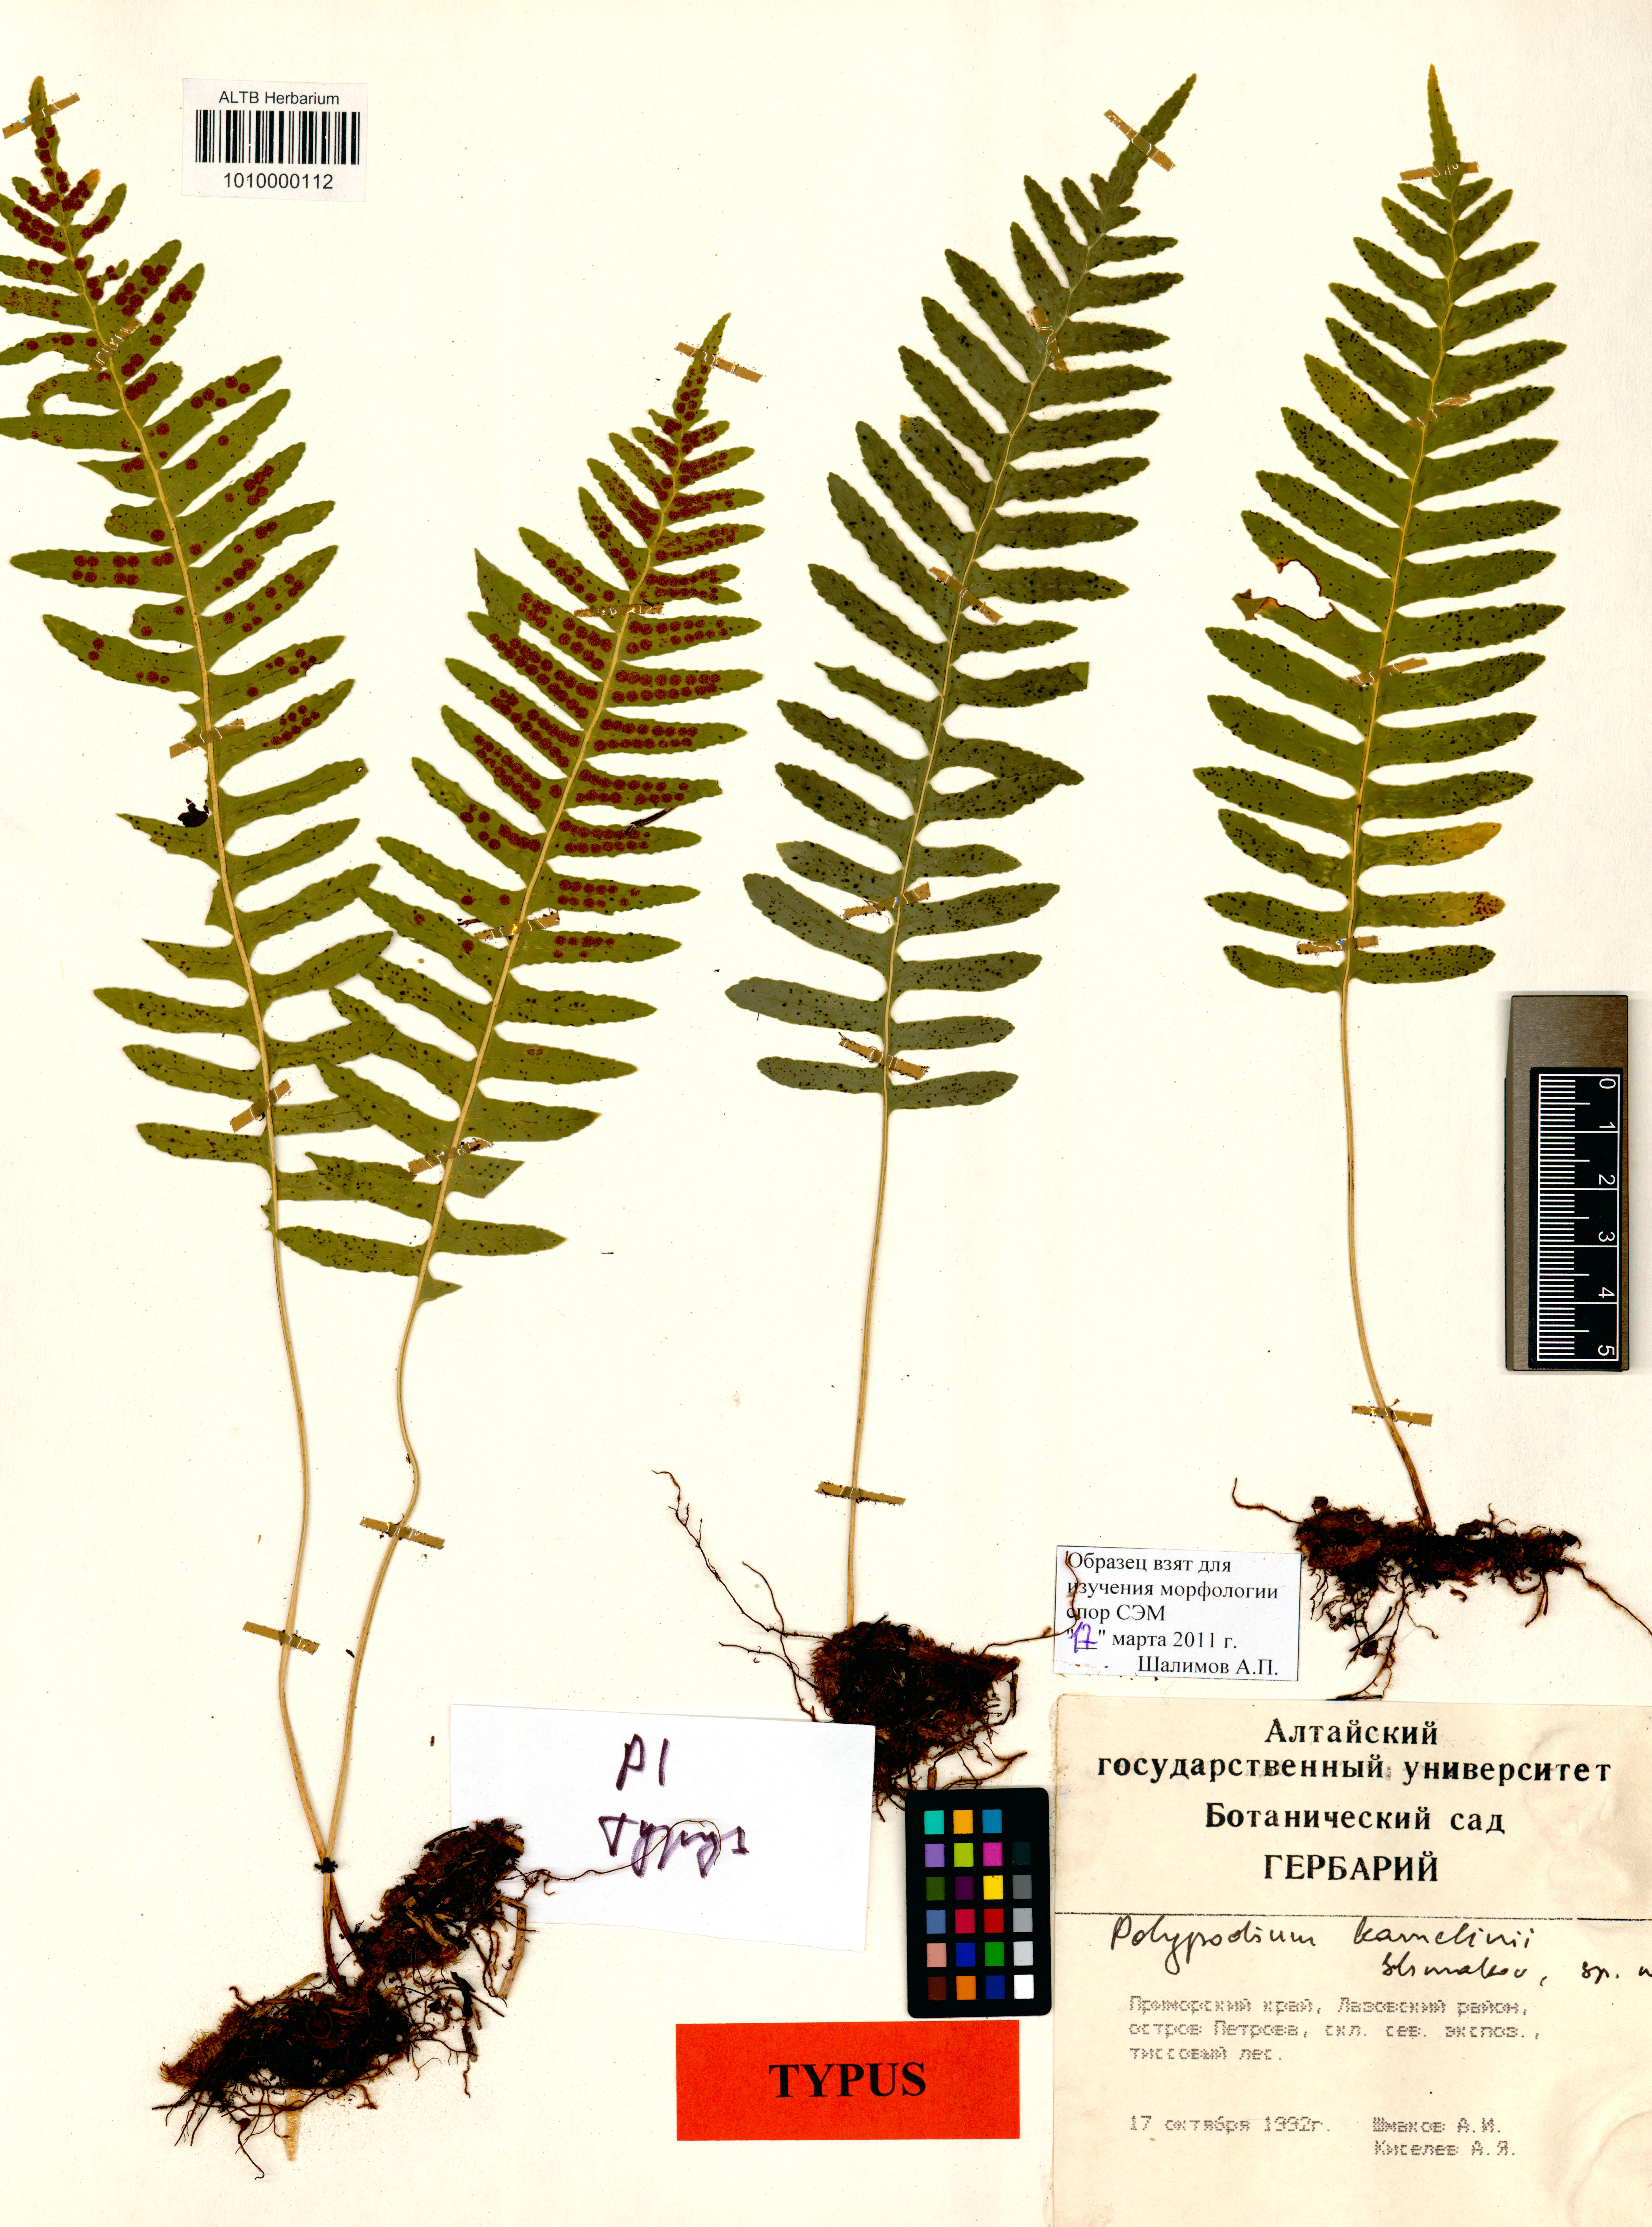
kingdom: Plantae
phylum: Tracheophyta
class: Polypodiopsida
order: Polypodiales
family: Polypodiaceae
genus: Polypodium
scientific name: Polypodium kamelinii
